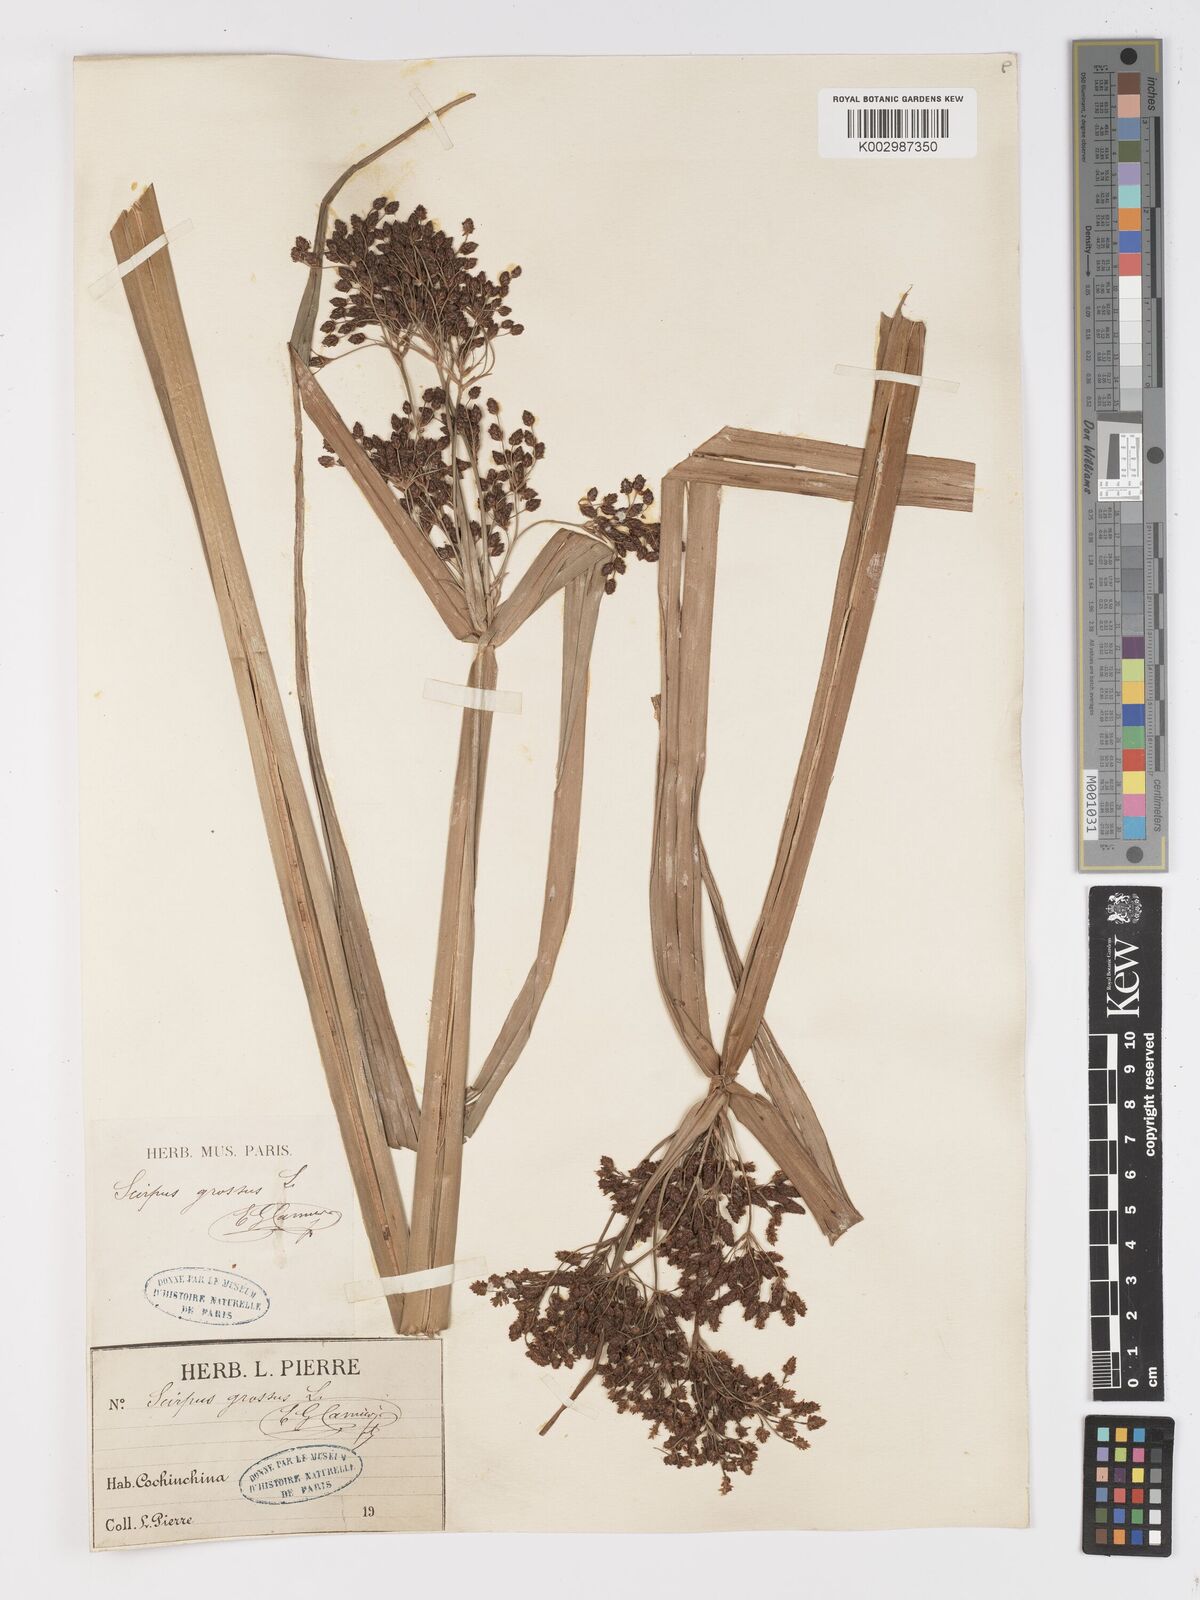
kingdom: Plantae
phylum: Tracheophyta
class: Liliopsida
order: Poales
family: Cyperaceae
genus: Actinoscirpus
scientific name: Actinoscirpus grossus
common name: Giant bur rush
